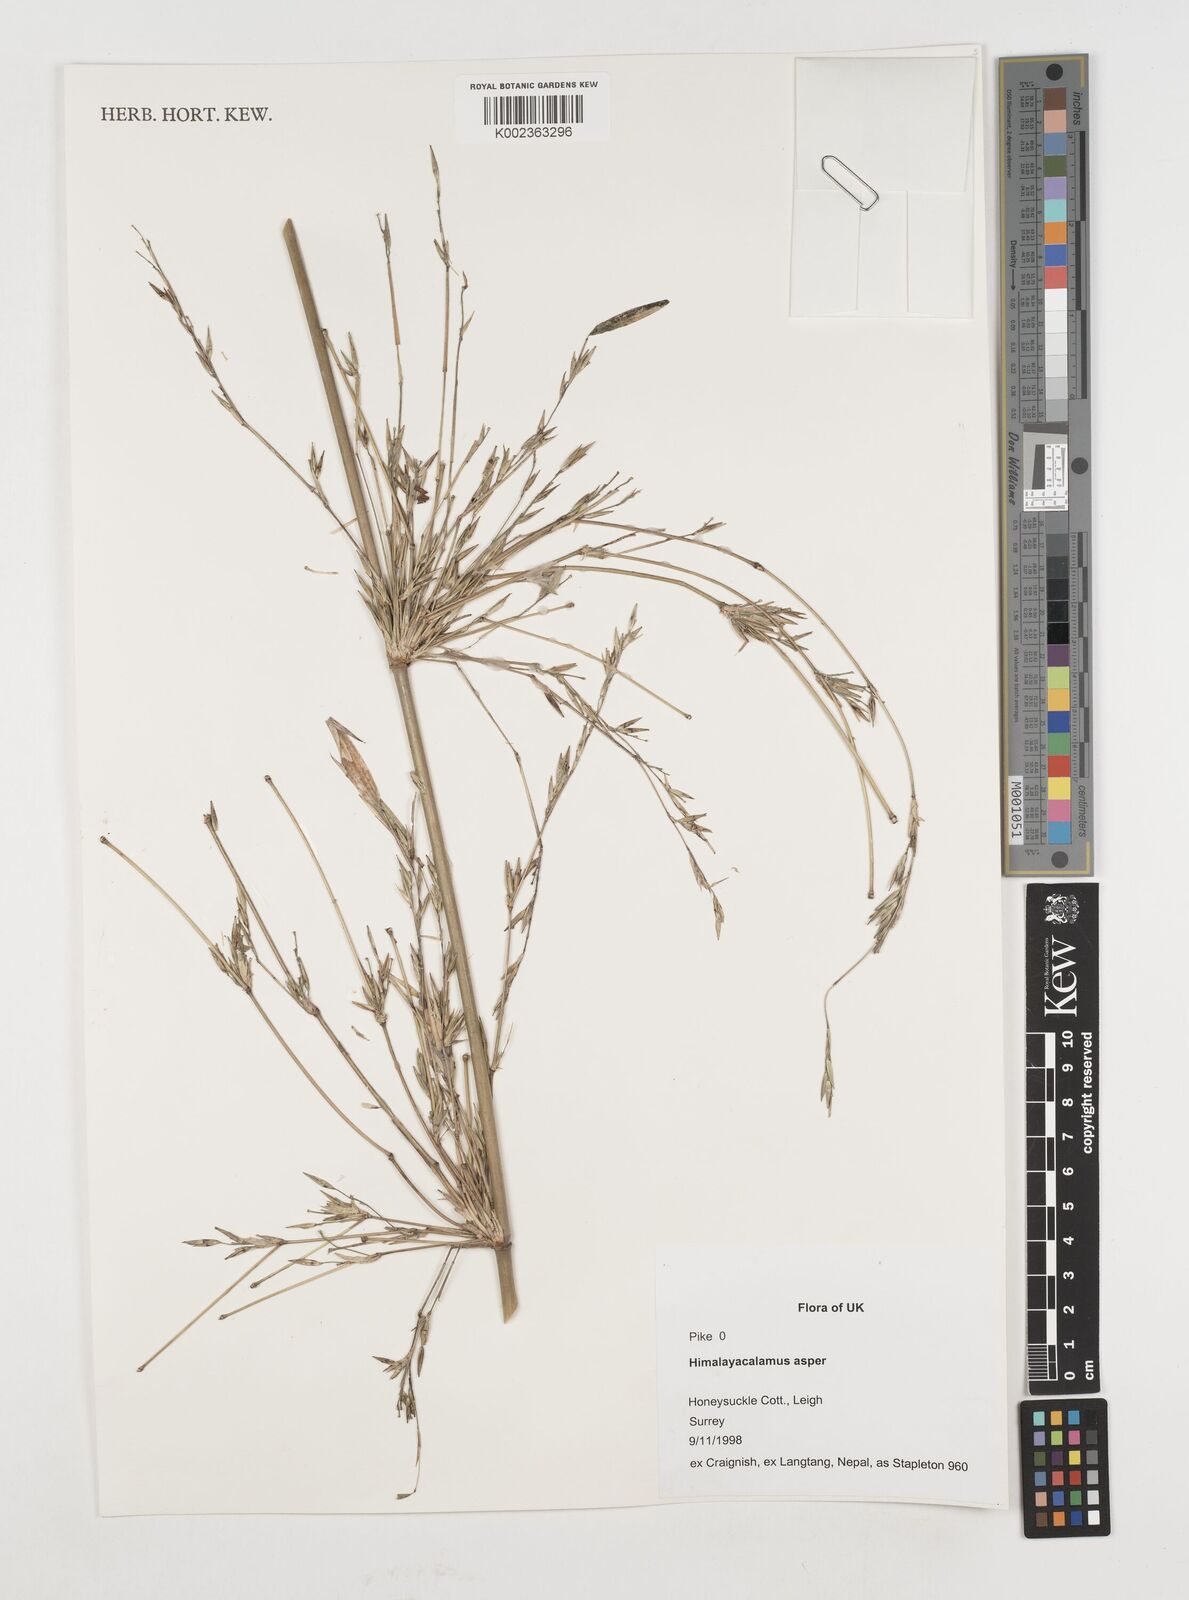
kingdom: Plantae
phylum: Tracheophyta
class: Liliopsida
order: Poales
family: Poaceae
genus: Himalayacalamus
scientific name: Himalayacalamus asper
